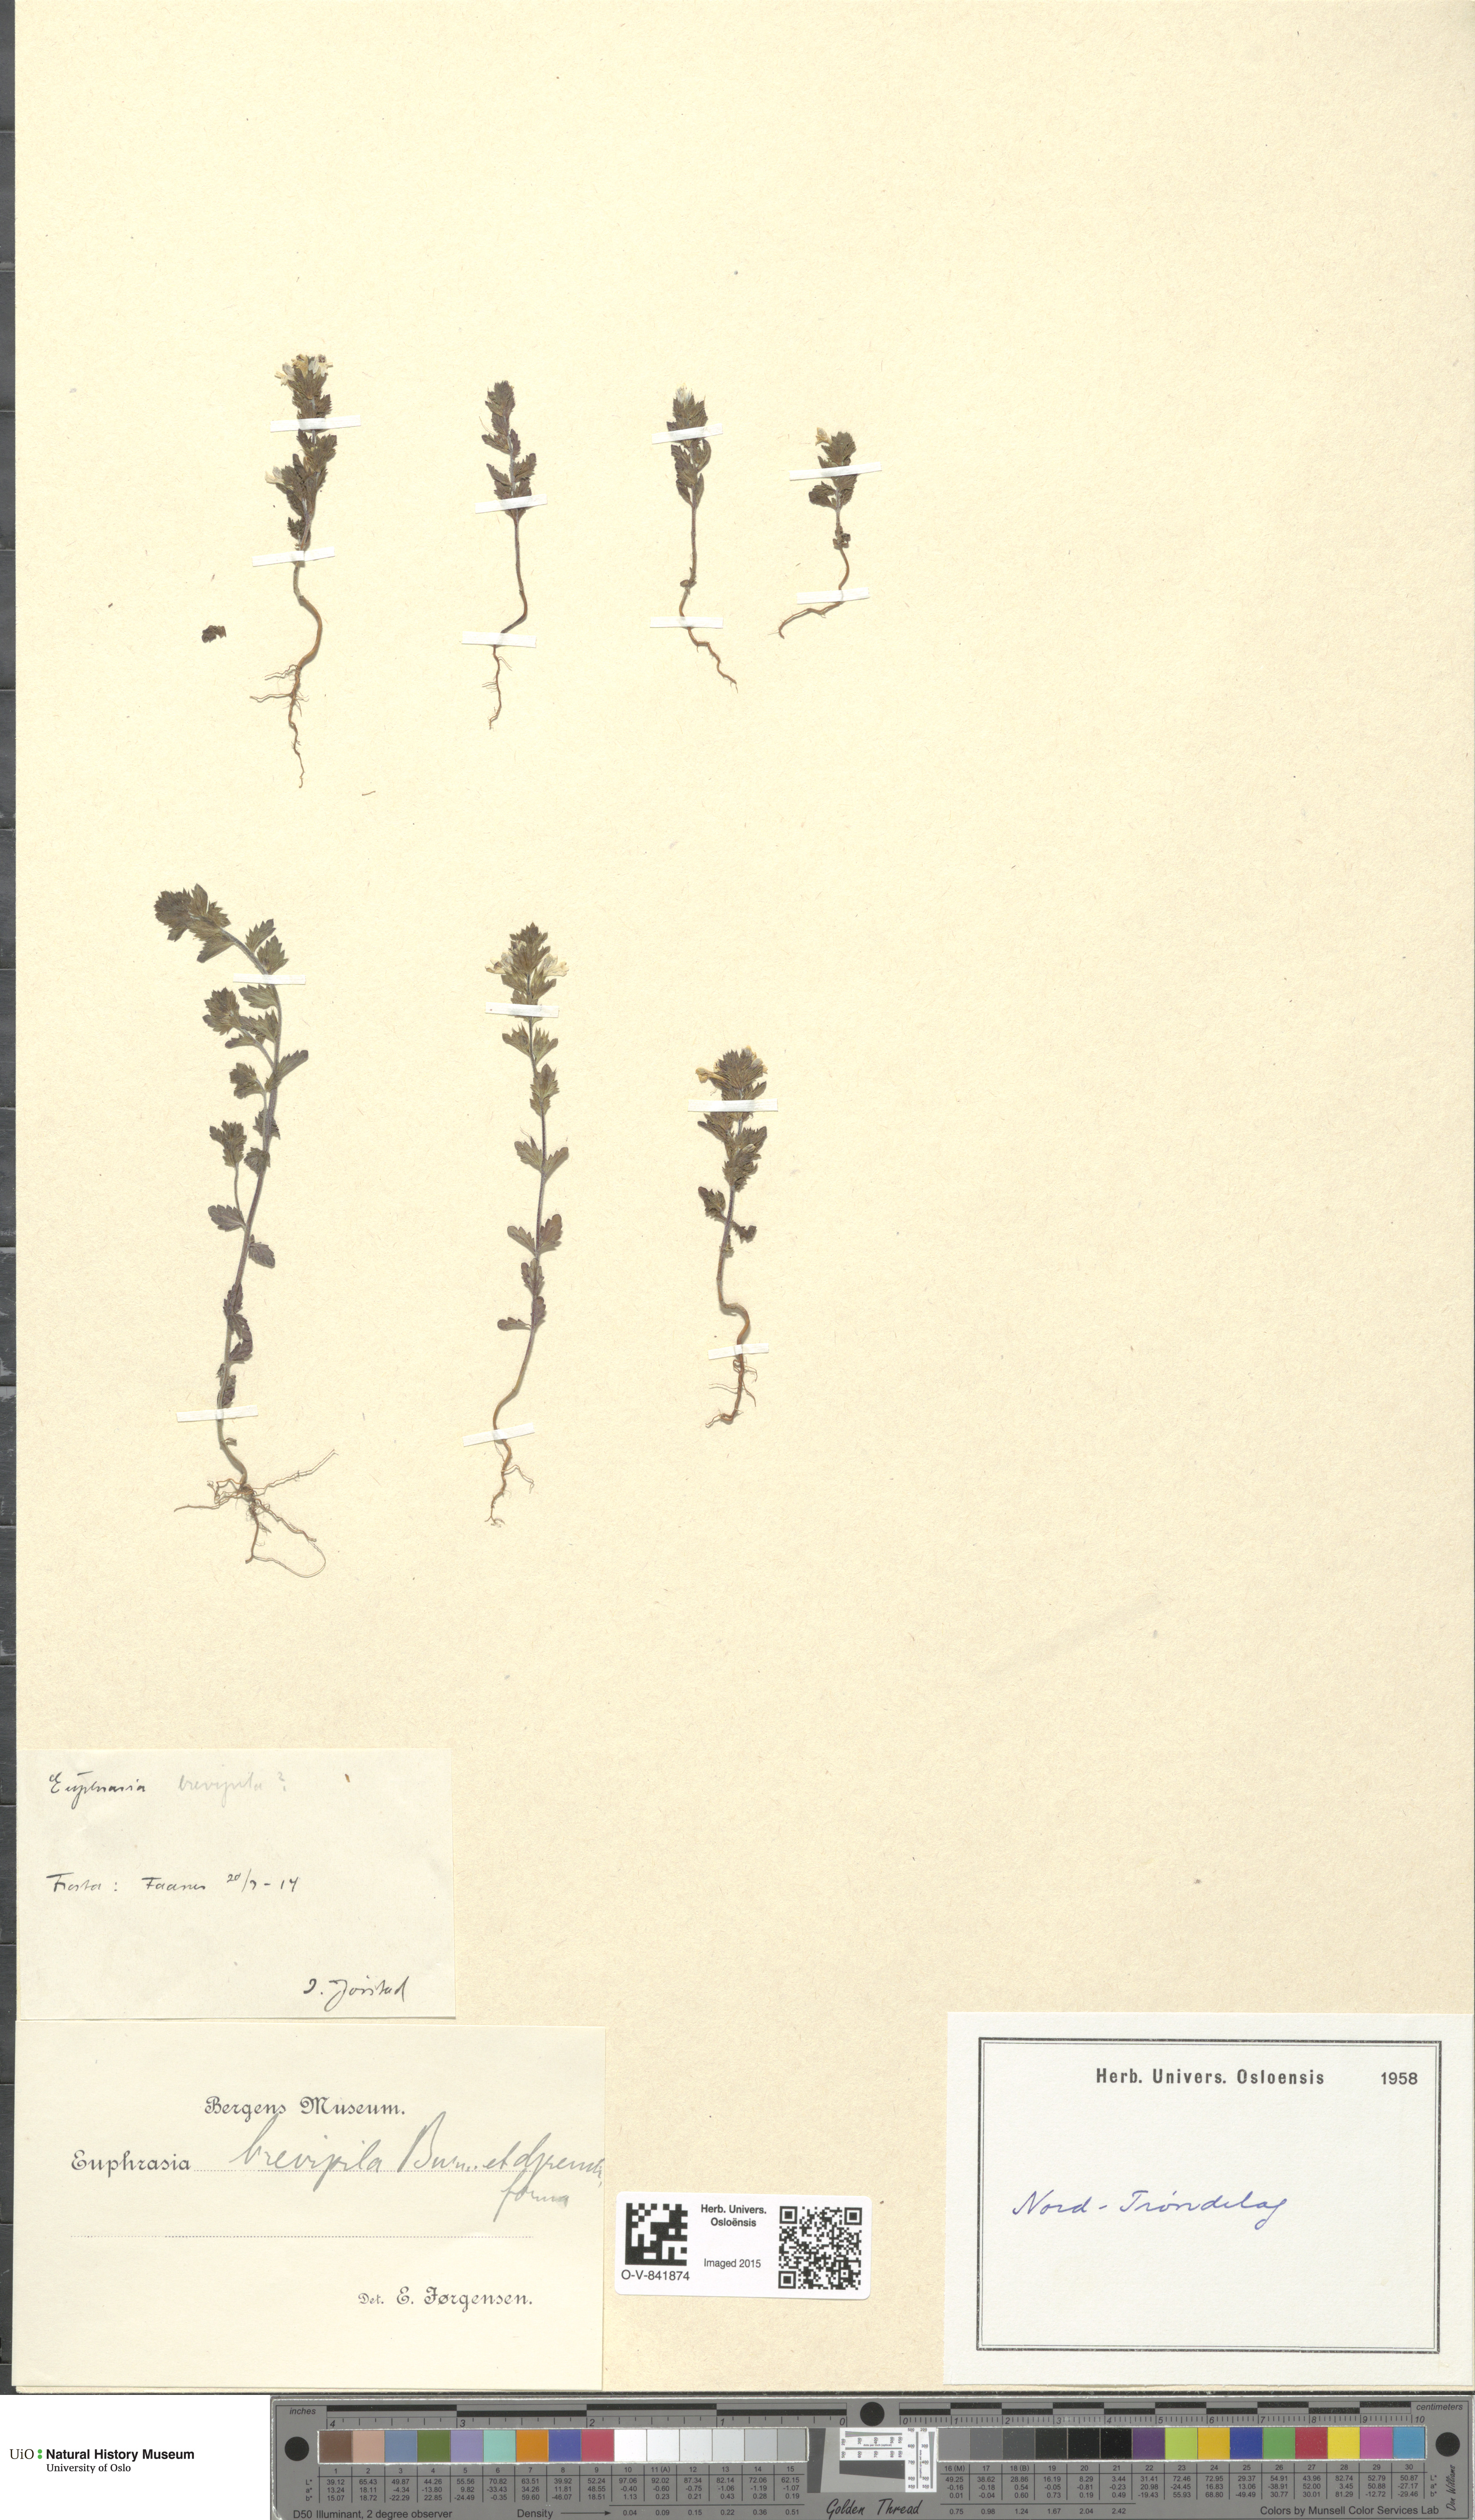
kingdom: Plantae
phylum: Tracheophyta
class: Magnoliopsida
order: Lamiales
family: Orobanchaceae
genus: Euphrasia
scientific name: Euphrasia vernalis
